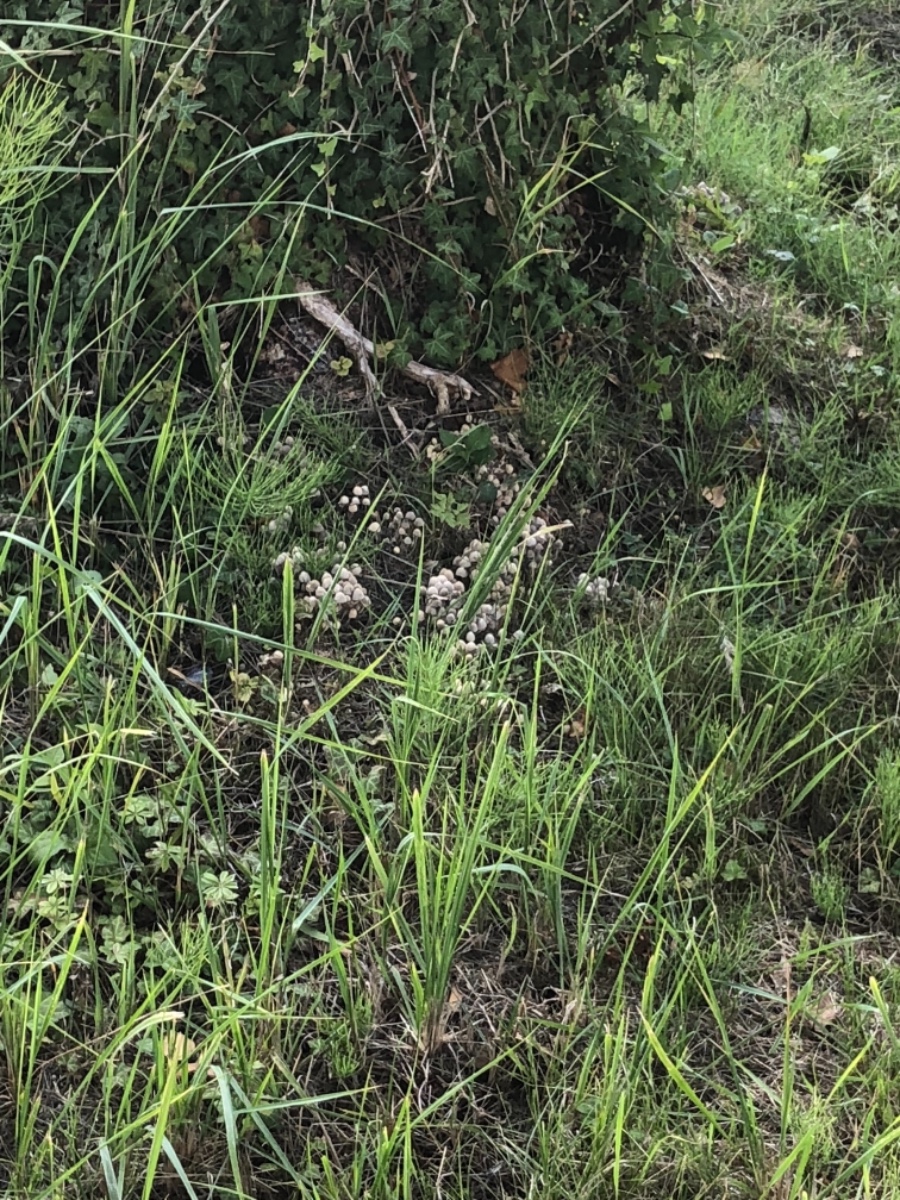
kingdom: Fungi
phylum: Basidiomycota
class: Agaricomycetes
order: Agaricales
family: Psathyrellaceae
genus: Coprinellus
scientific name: Coprinellus disseminatus
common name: bredsået blækhat
